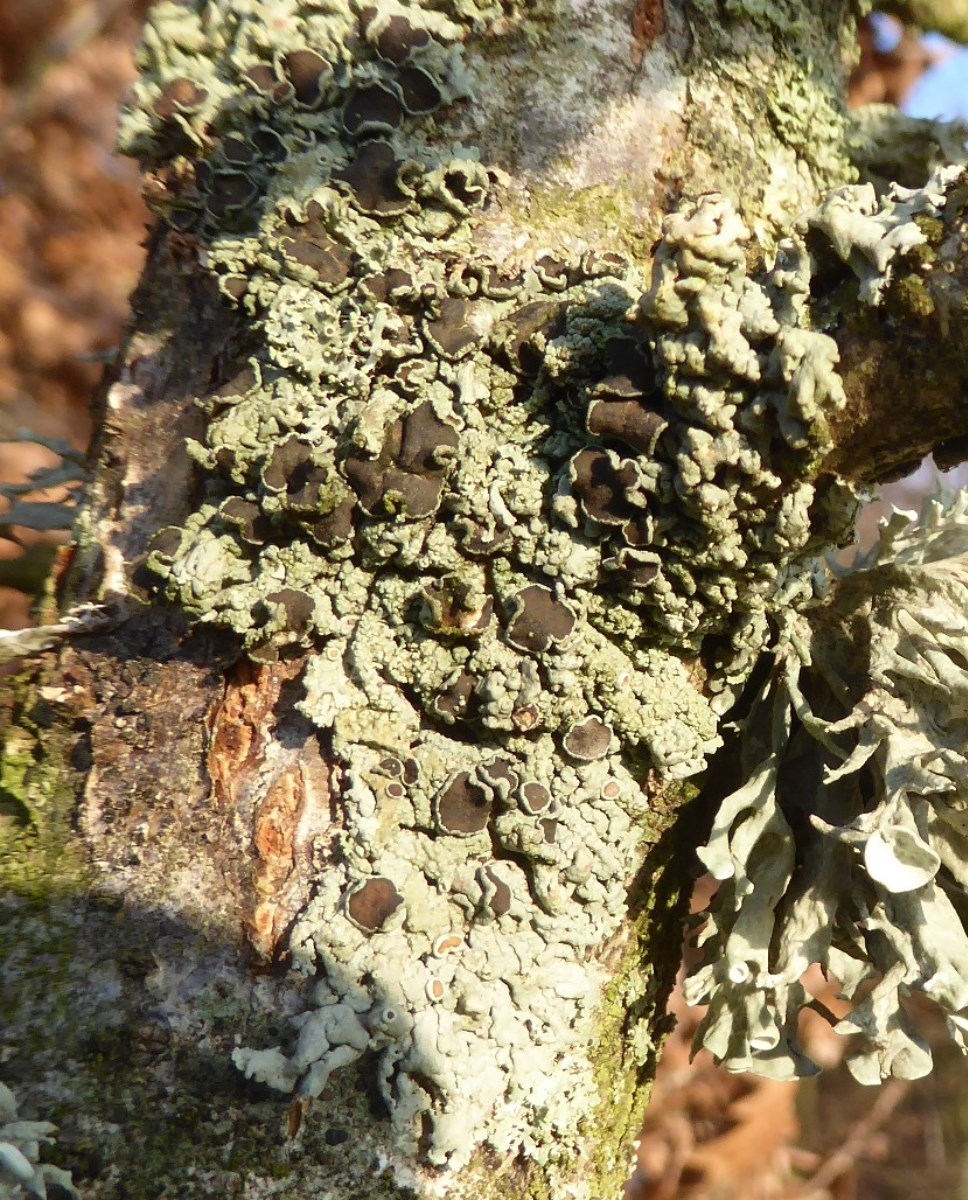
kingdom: Fungi
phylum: Ascomycota
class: Lecanoromycetes
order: Caliciales
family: Physciaceae
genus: Physcia
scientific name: Physcia stellaris
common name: stjerneformet rosetlav
